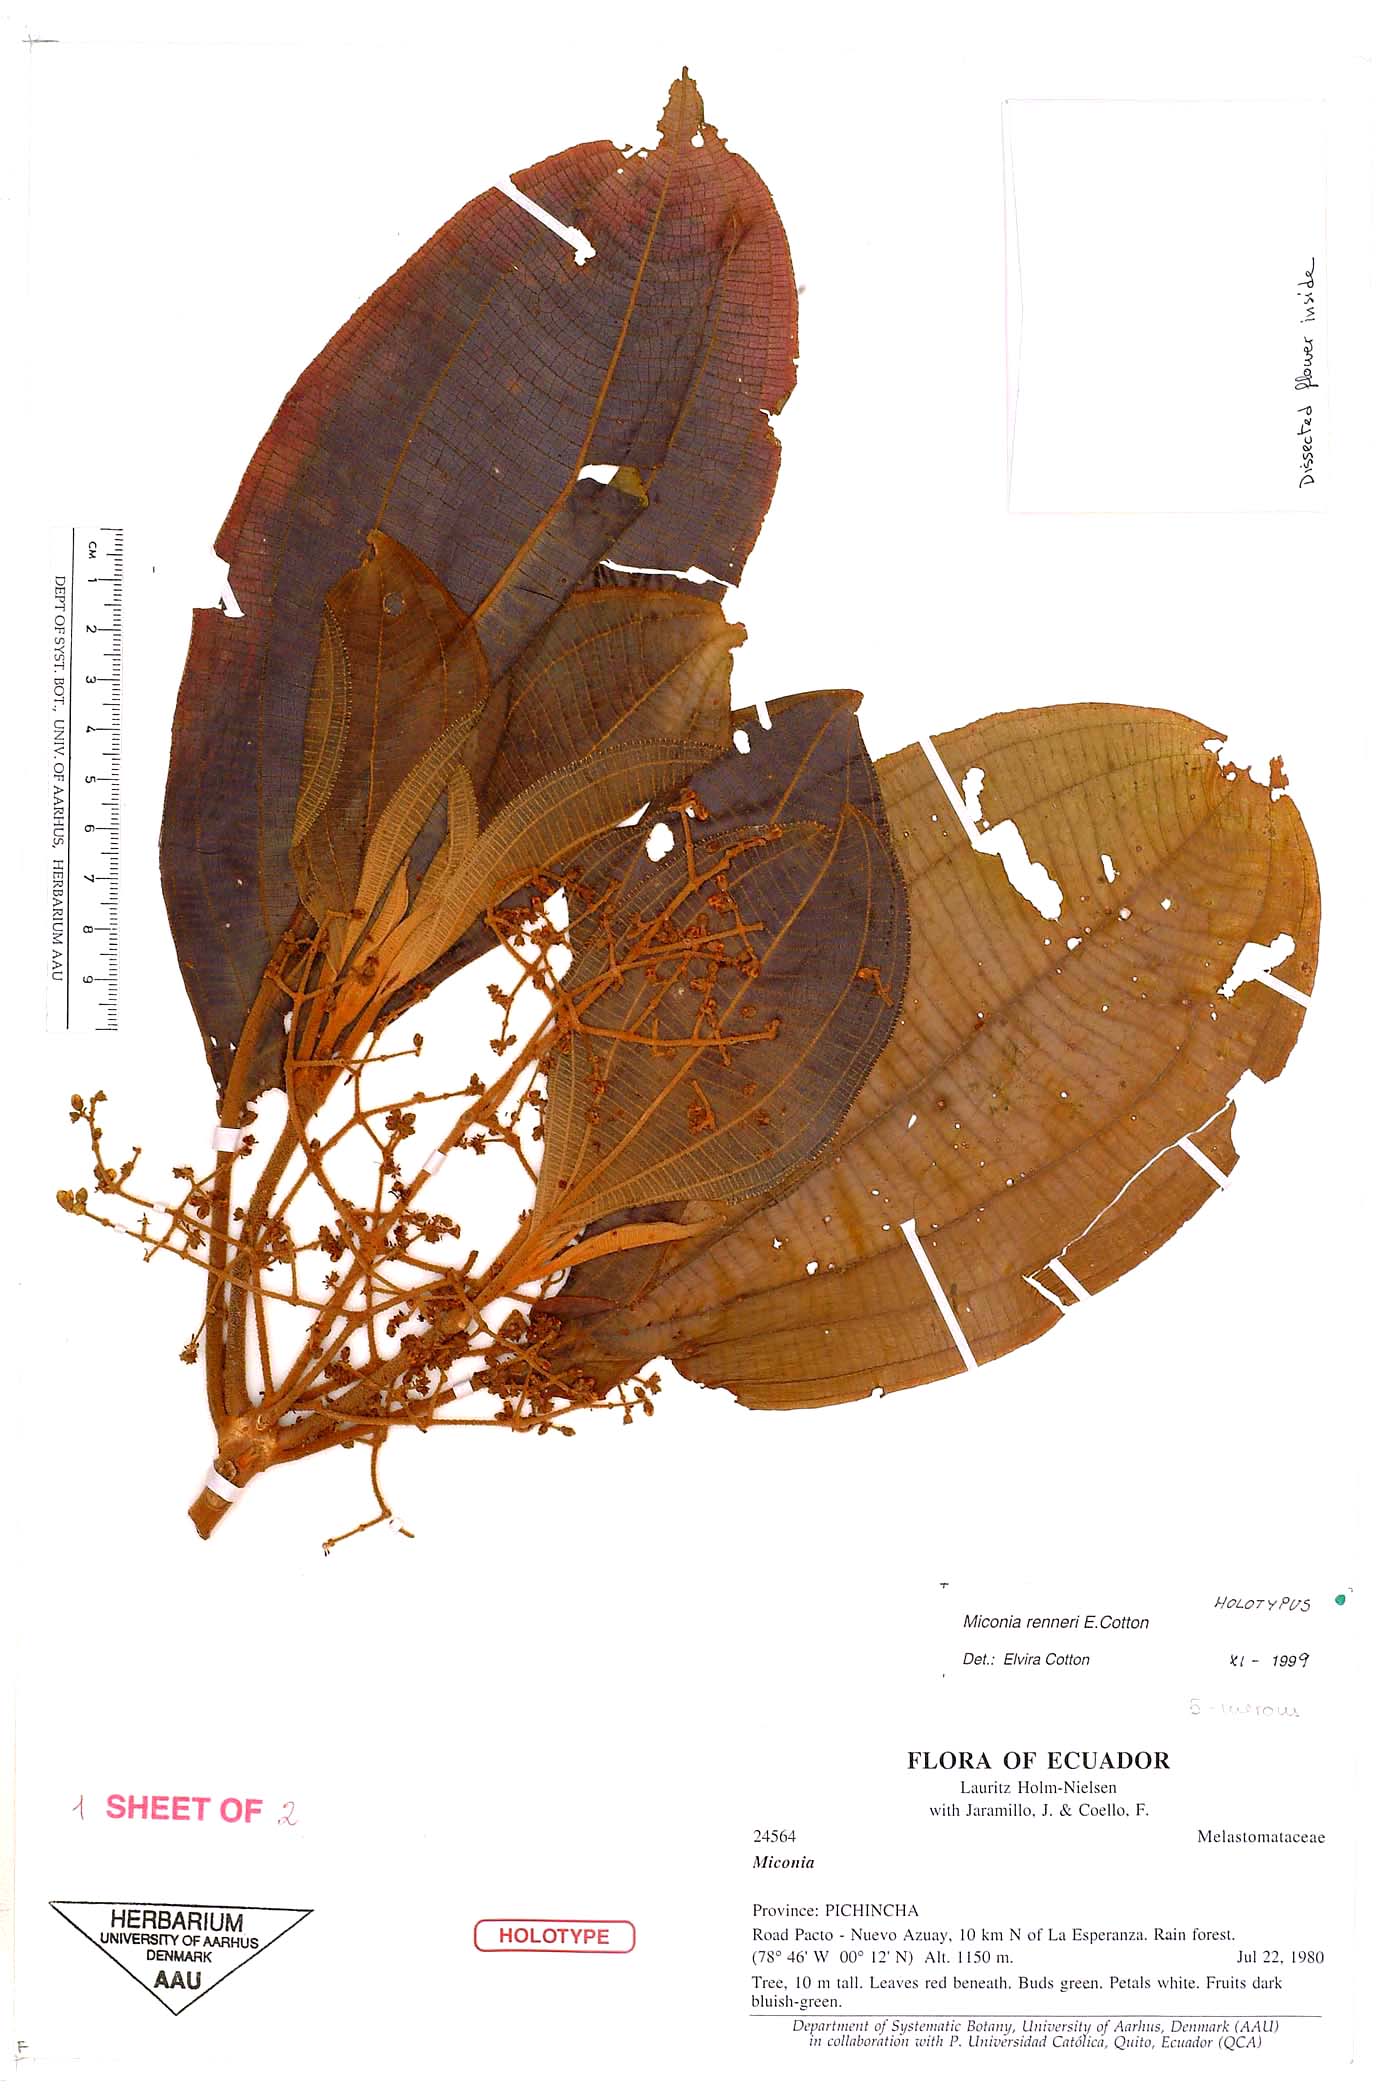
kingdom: Plantae
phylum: Tracheophyta
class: Magnoliopsida
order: Myrtales
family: Melastomataceae
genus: Miconia
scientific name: Miconia renneri
